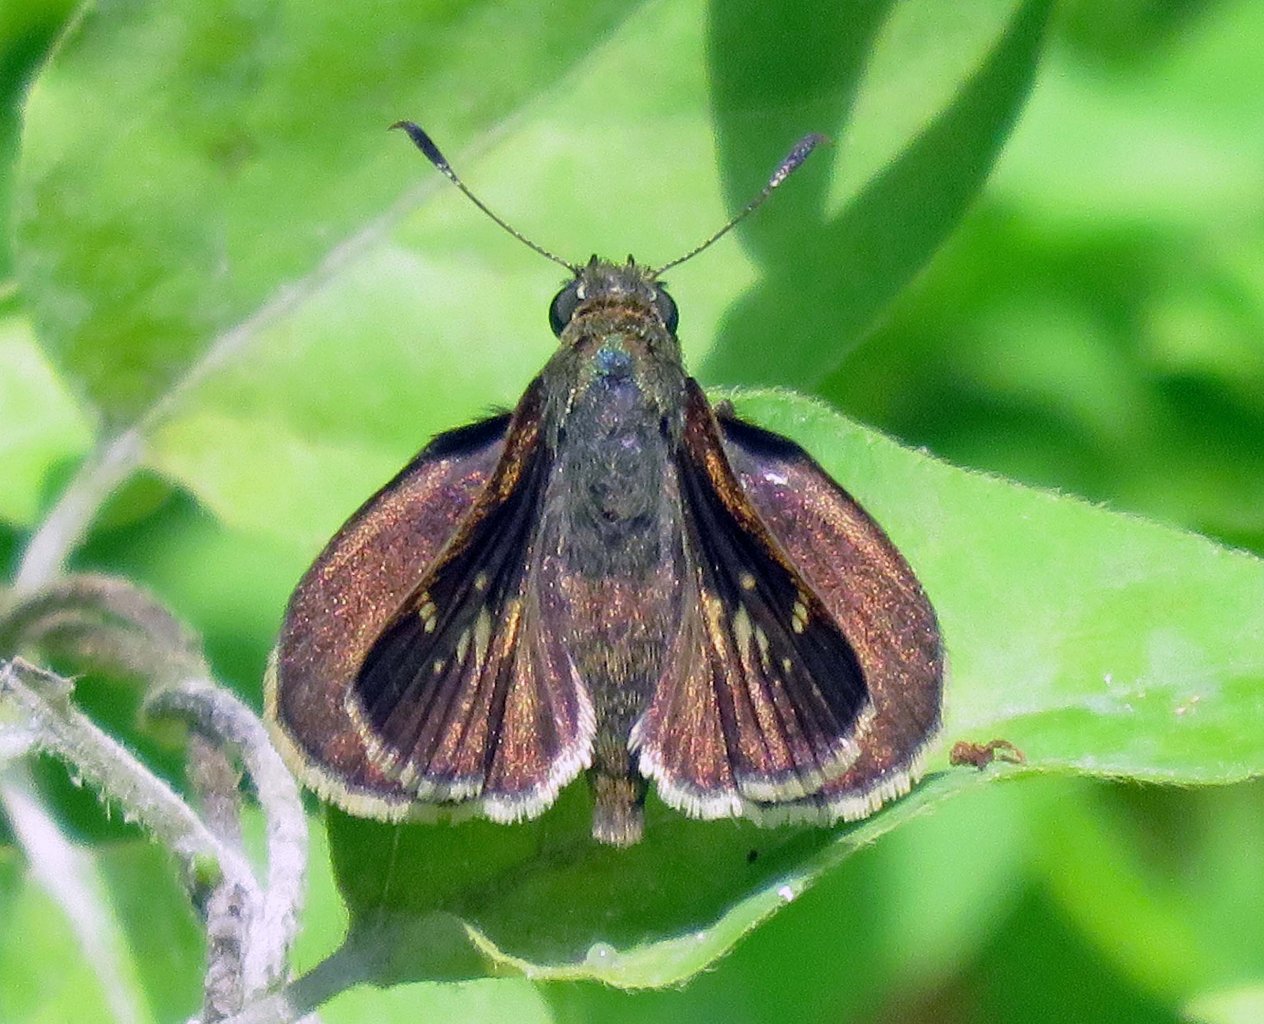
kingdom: Animalia
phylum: Arthropoda
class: Insecta
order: Lepidoptera
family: Hesperiidae
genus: Vernia
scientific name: Vernia verna
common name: Little Glassywing
